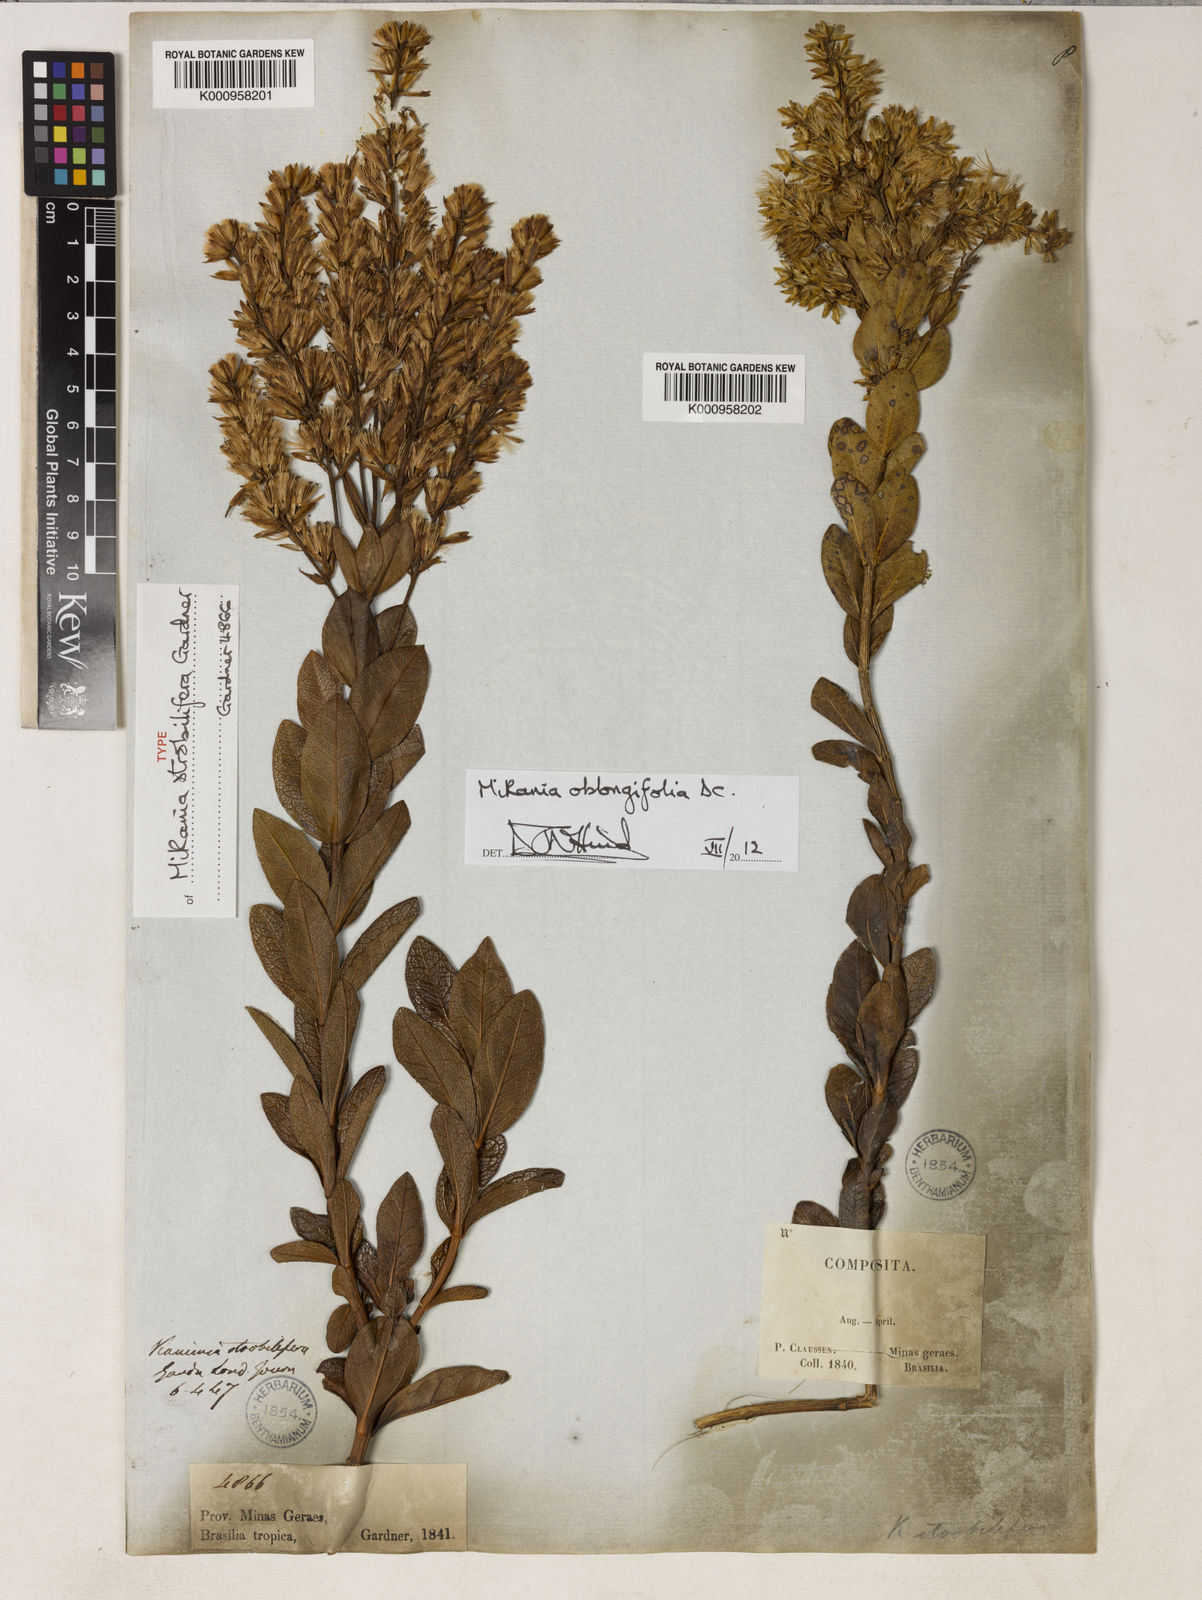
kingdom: Plantae
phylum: Tracheophyta
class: Magnoliopsida
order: Asterales
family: Asteraceae
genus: Mikania
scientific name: Mikania oblongifolia
